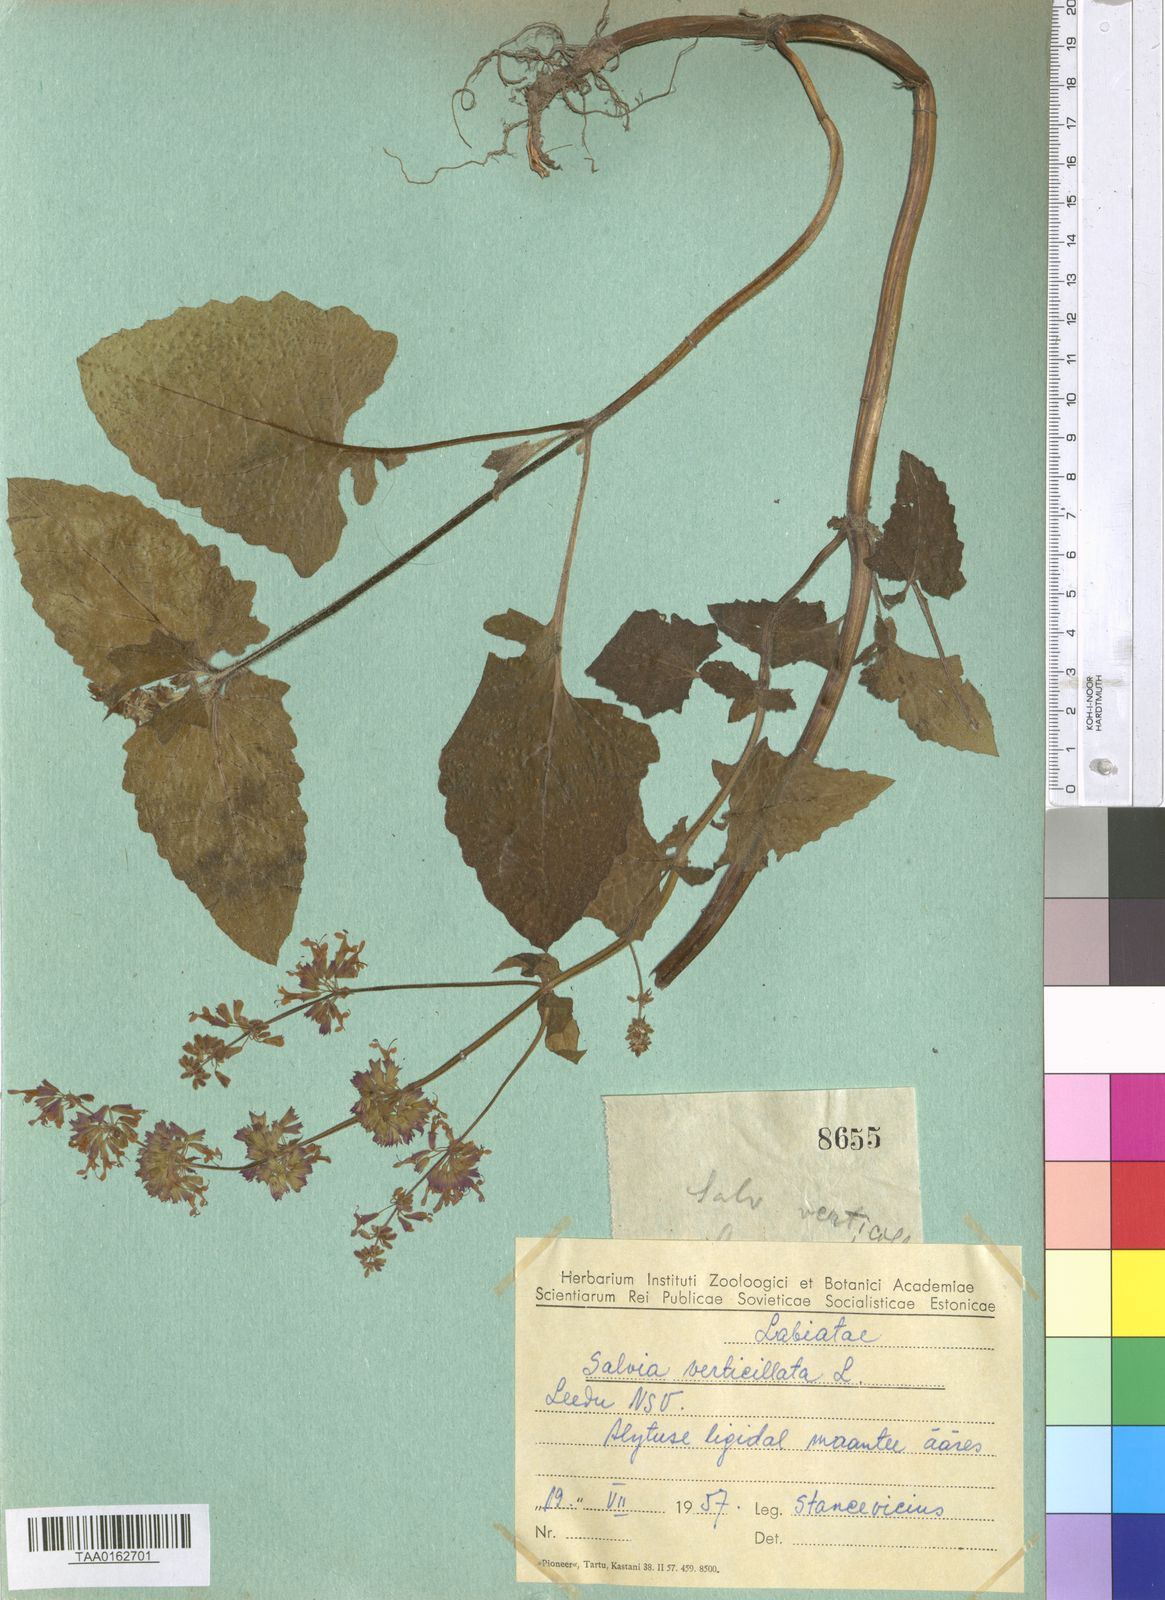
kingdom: Plantae
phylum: Tracheophyta
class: Magnoliopsida
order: Lamiales
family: Lamiaceae
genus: Salvia
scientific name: Salvia verticillata
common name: Whorled clary
